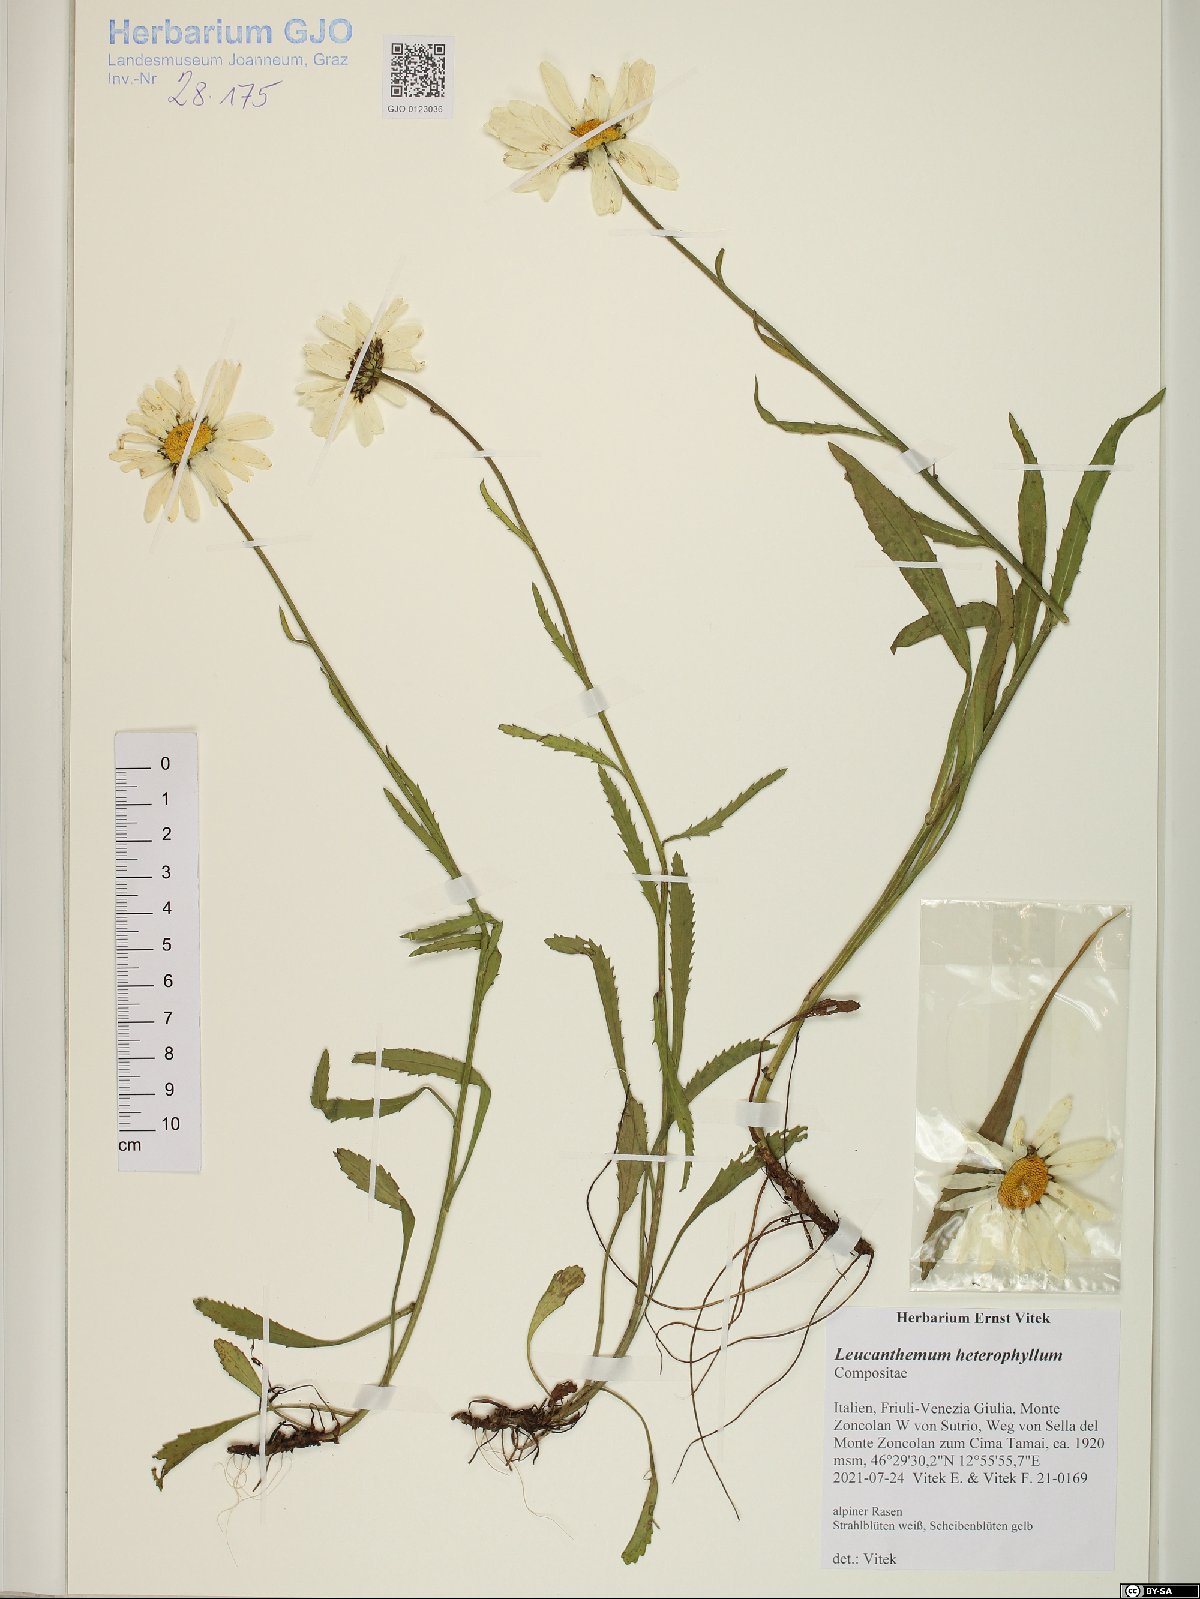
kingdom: Plantae
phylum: Tracheophyta
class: Magnoliopsida
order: Asterales
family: Asteraceae
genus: Leucanthemum
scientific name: Leucanthemum heterophyllum
